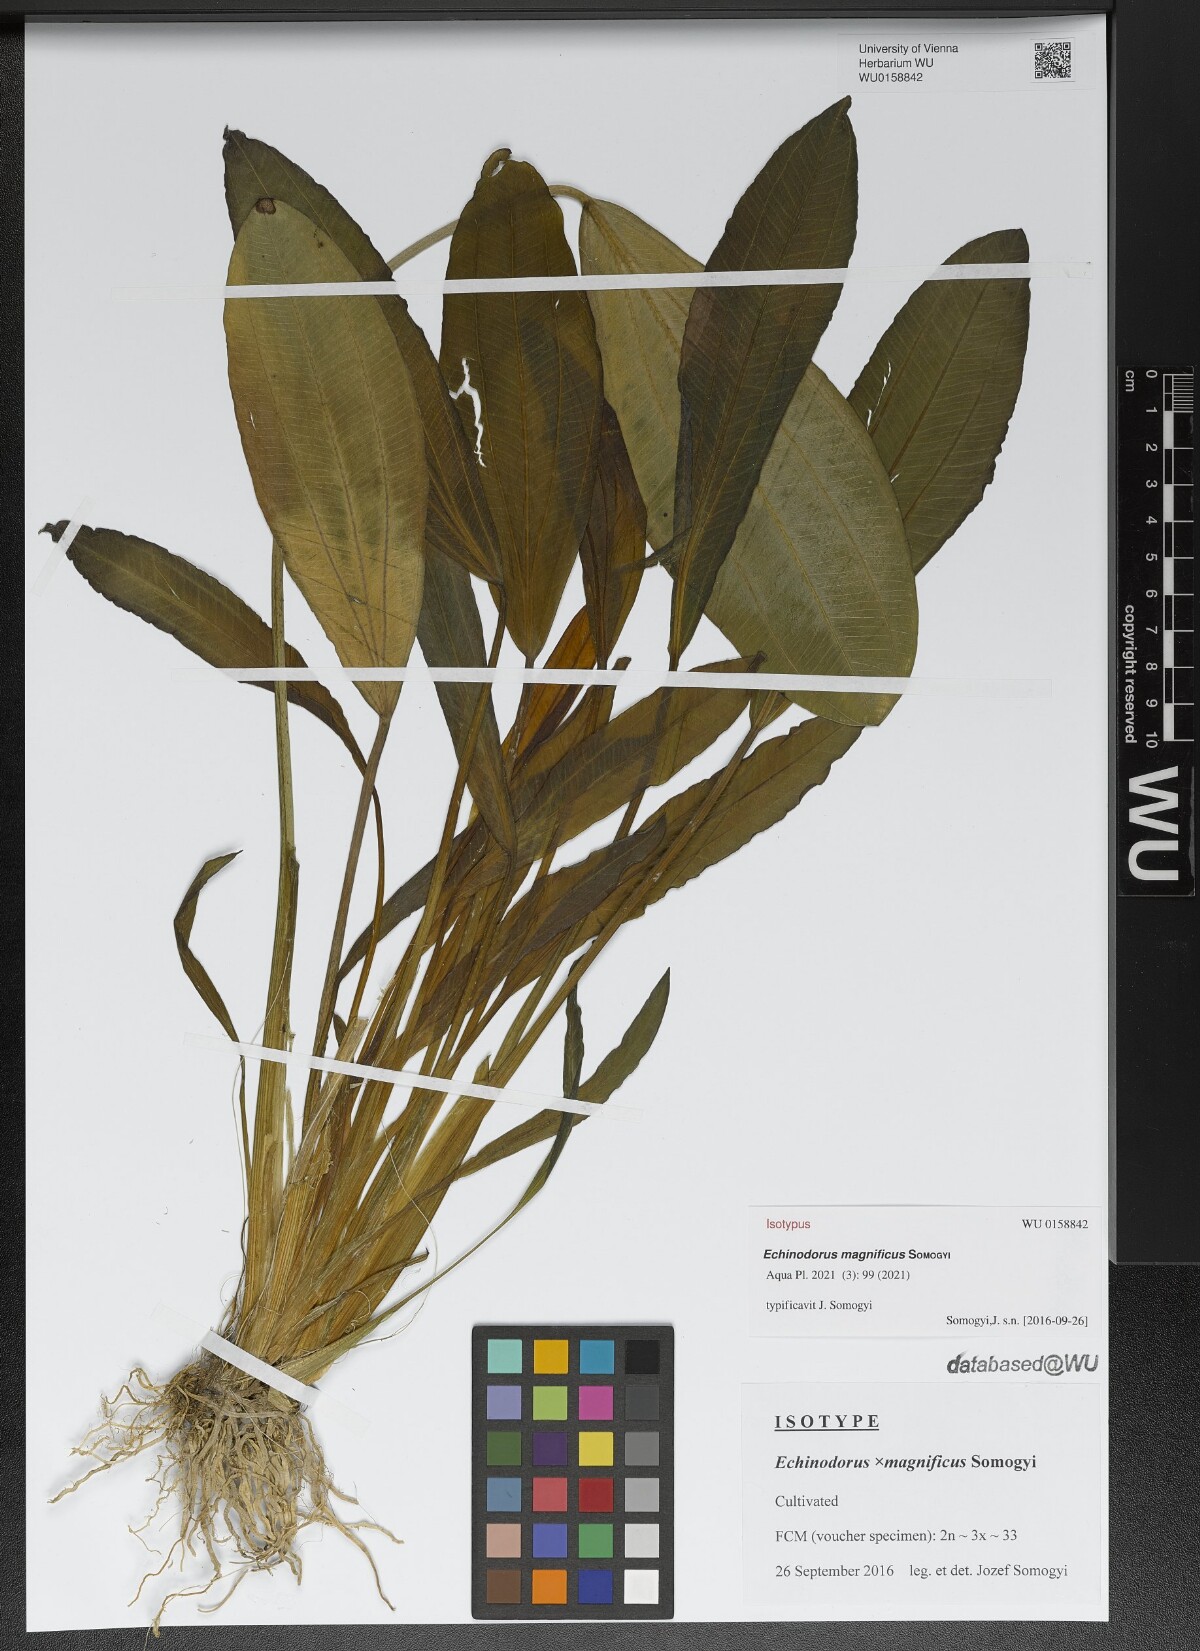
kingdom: Plantae
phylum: Tracheophyta
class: Liliopsida
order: Alismatales
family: Alismataceae
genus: Echinodorus
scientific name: Echinodorus
